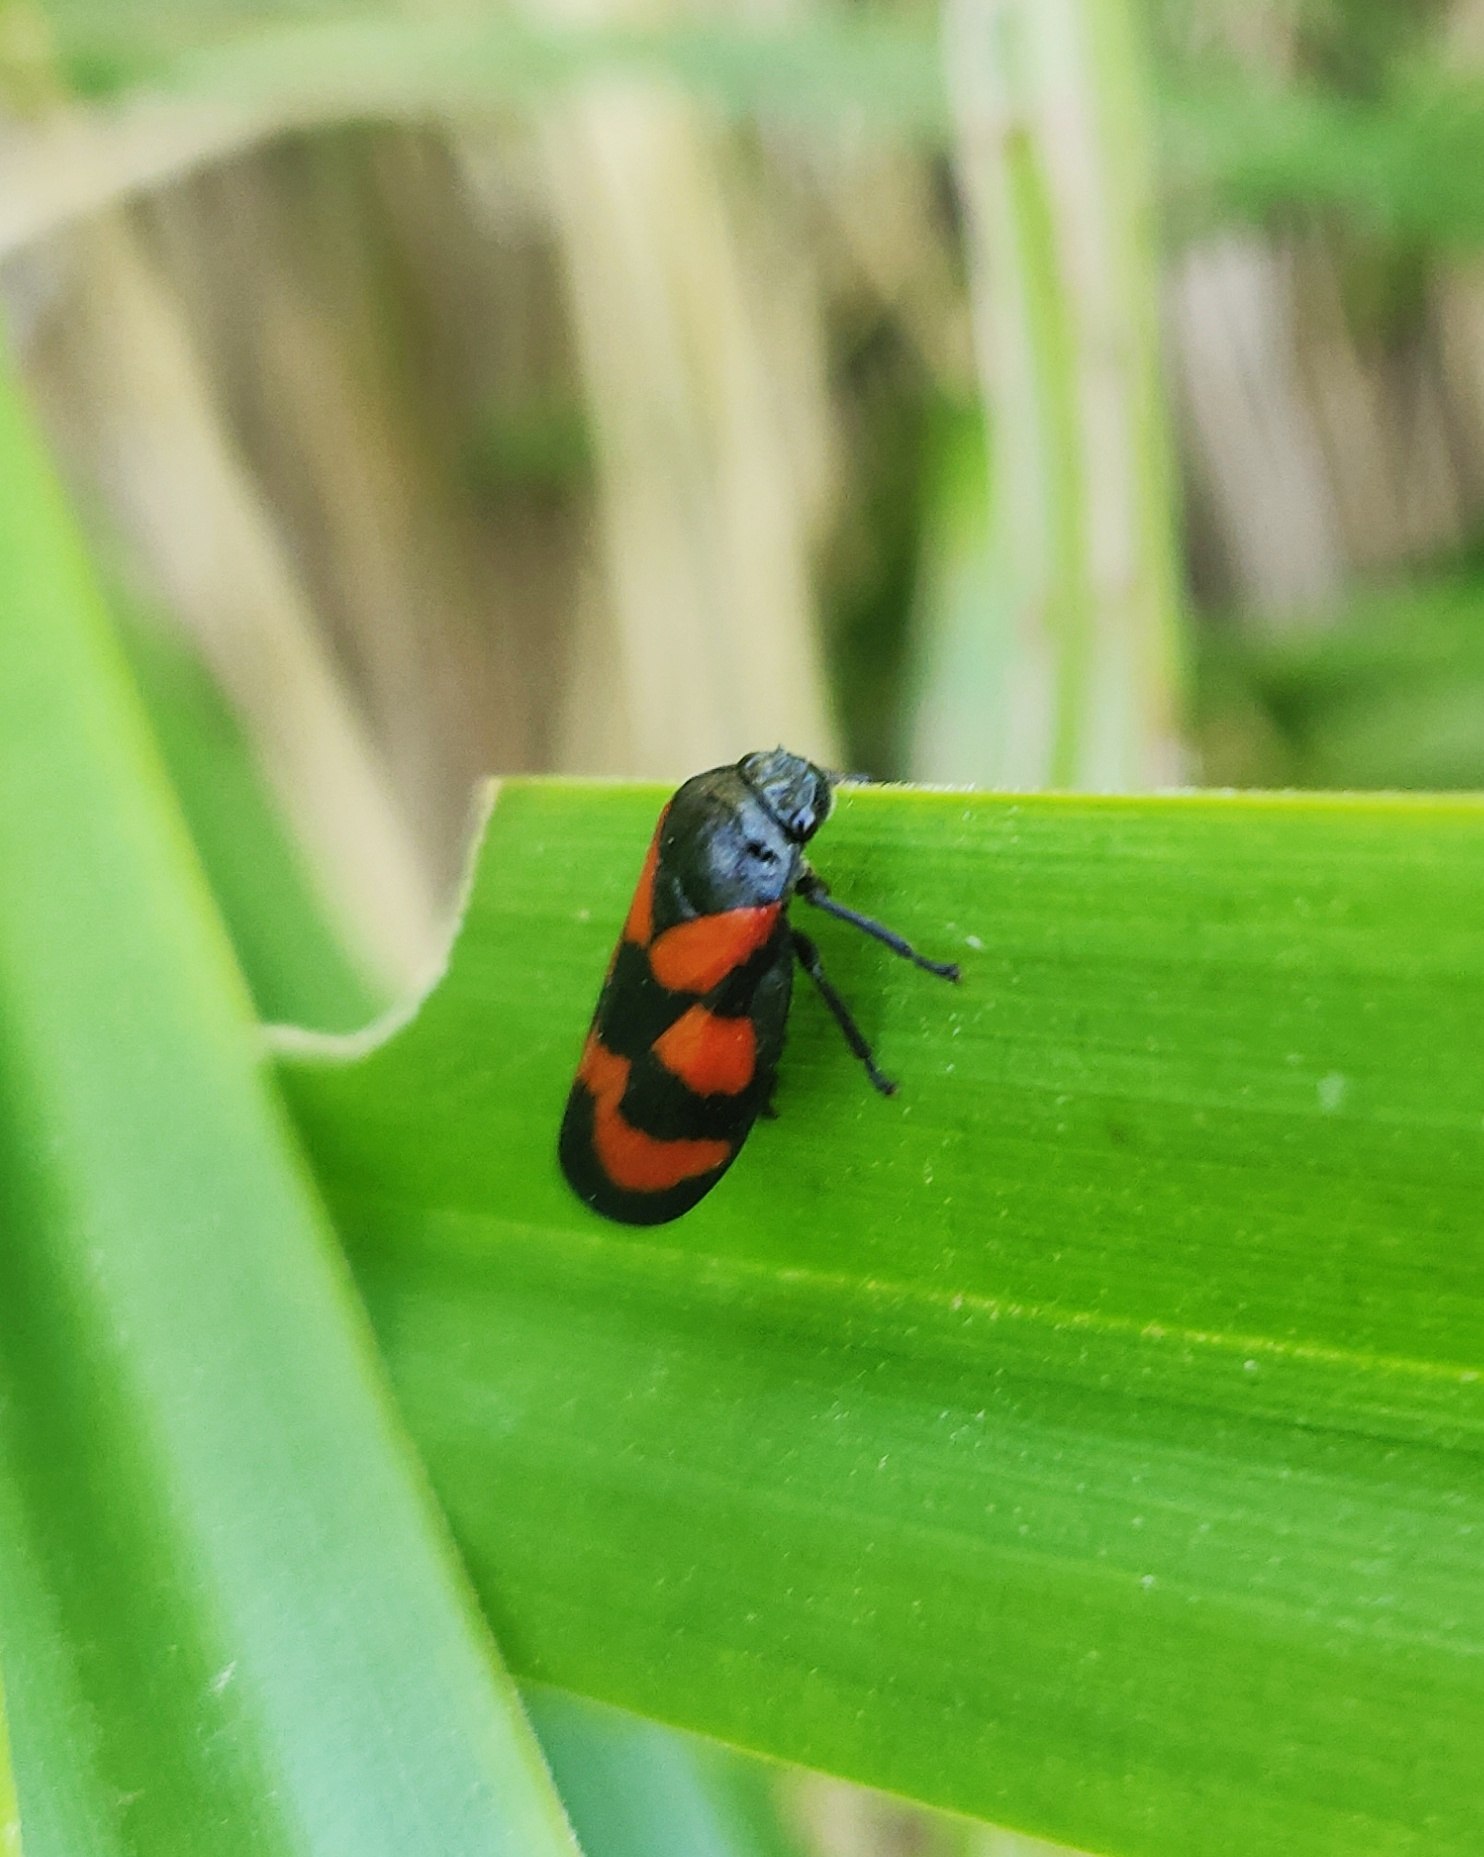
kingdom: Animalia
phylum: Arthropoda
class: Insecta
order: Hemiptera
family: Cercopidae
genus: Cercopis
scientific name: Cercopis vulnerata
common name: Blodcikade
